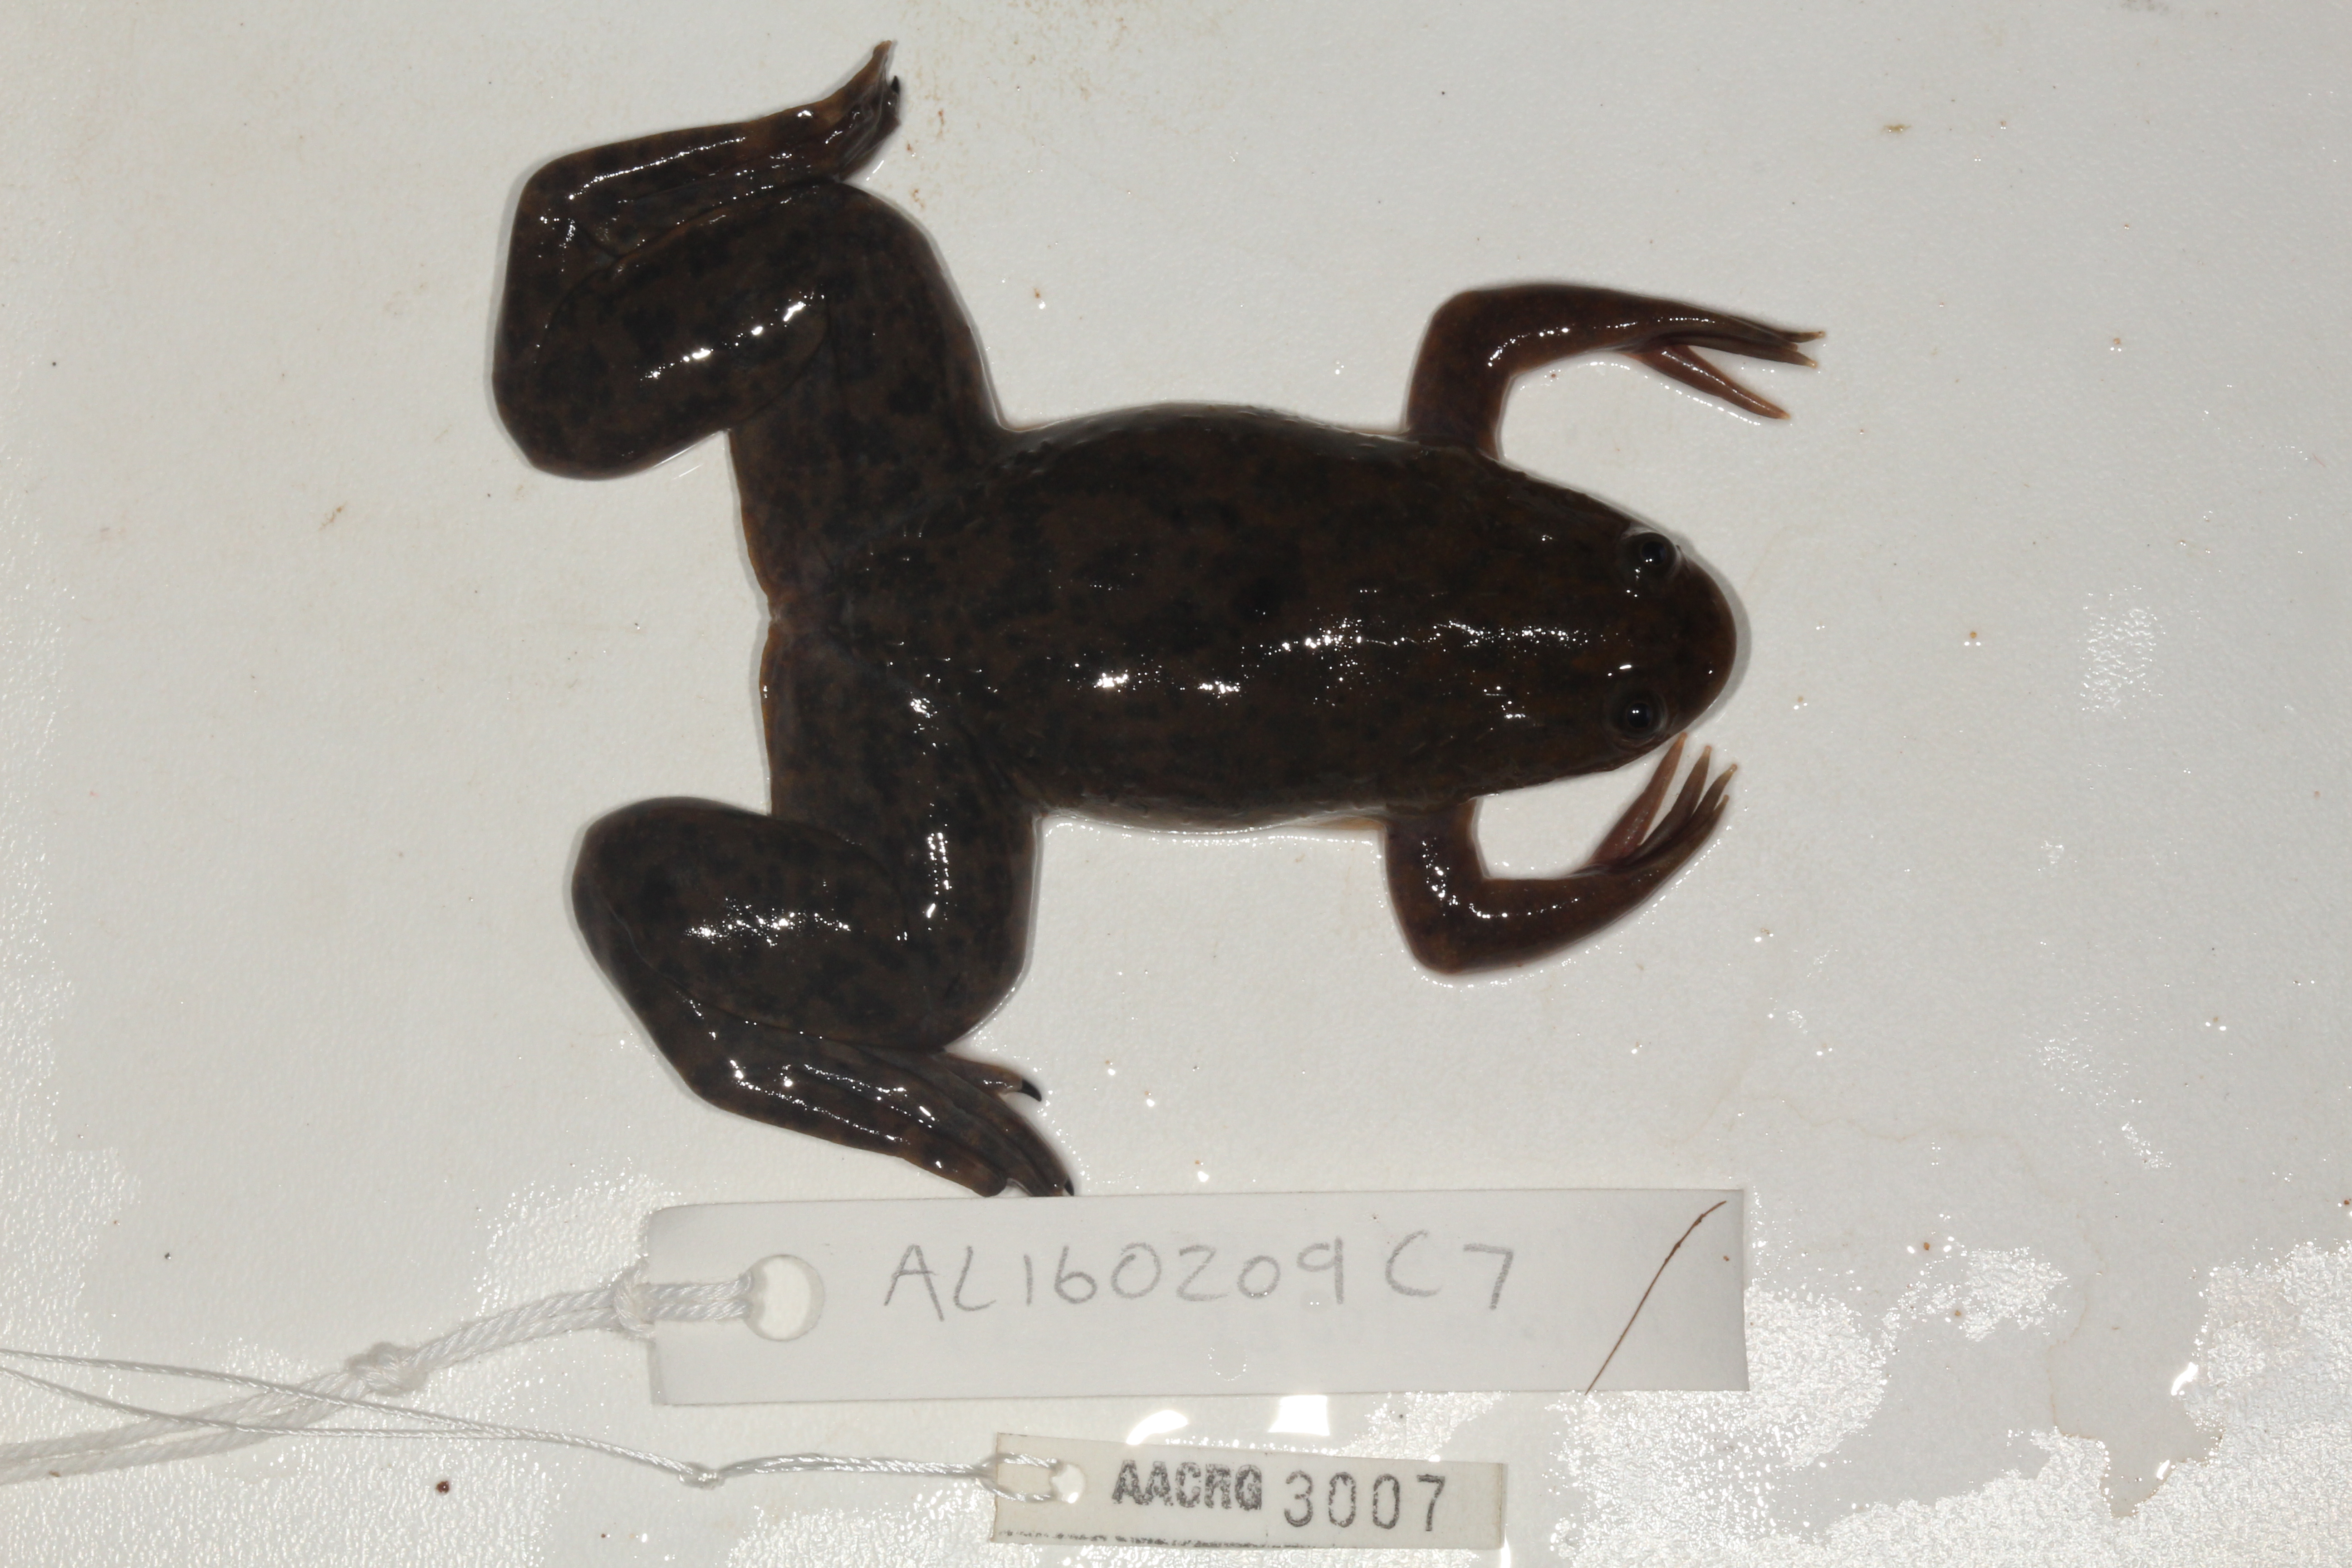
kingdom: Animalia
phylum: Chordata
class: Amphibia
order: Anura
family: Pipidae
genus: Xenopus
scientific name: Xenopus laevis
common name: African clawed frog
